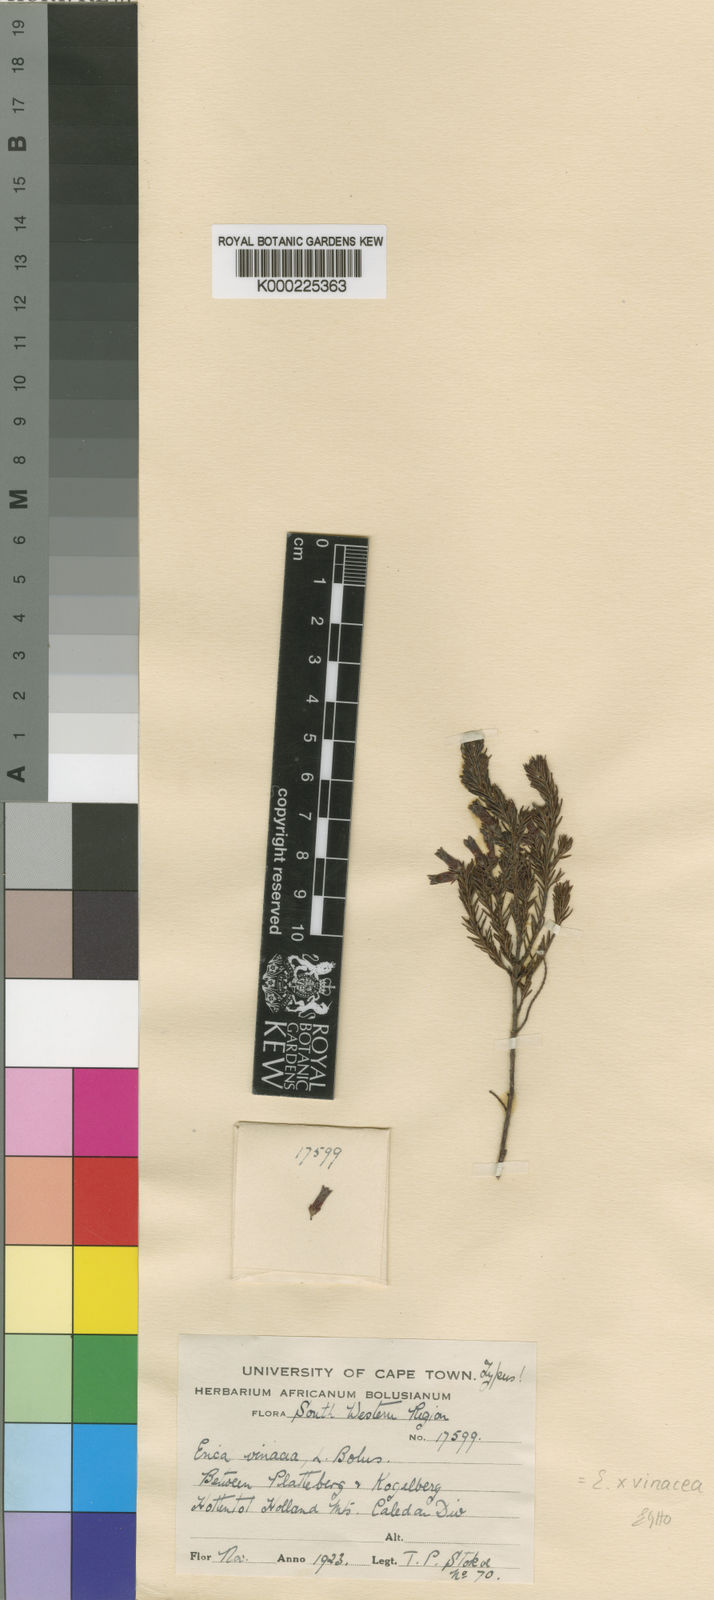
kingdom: Plantae
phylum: Tracheophyta
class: Magnoliopsida
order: Ericales
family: Ericaceae
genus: Erica
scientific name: Erica vinacea
